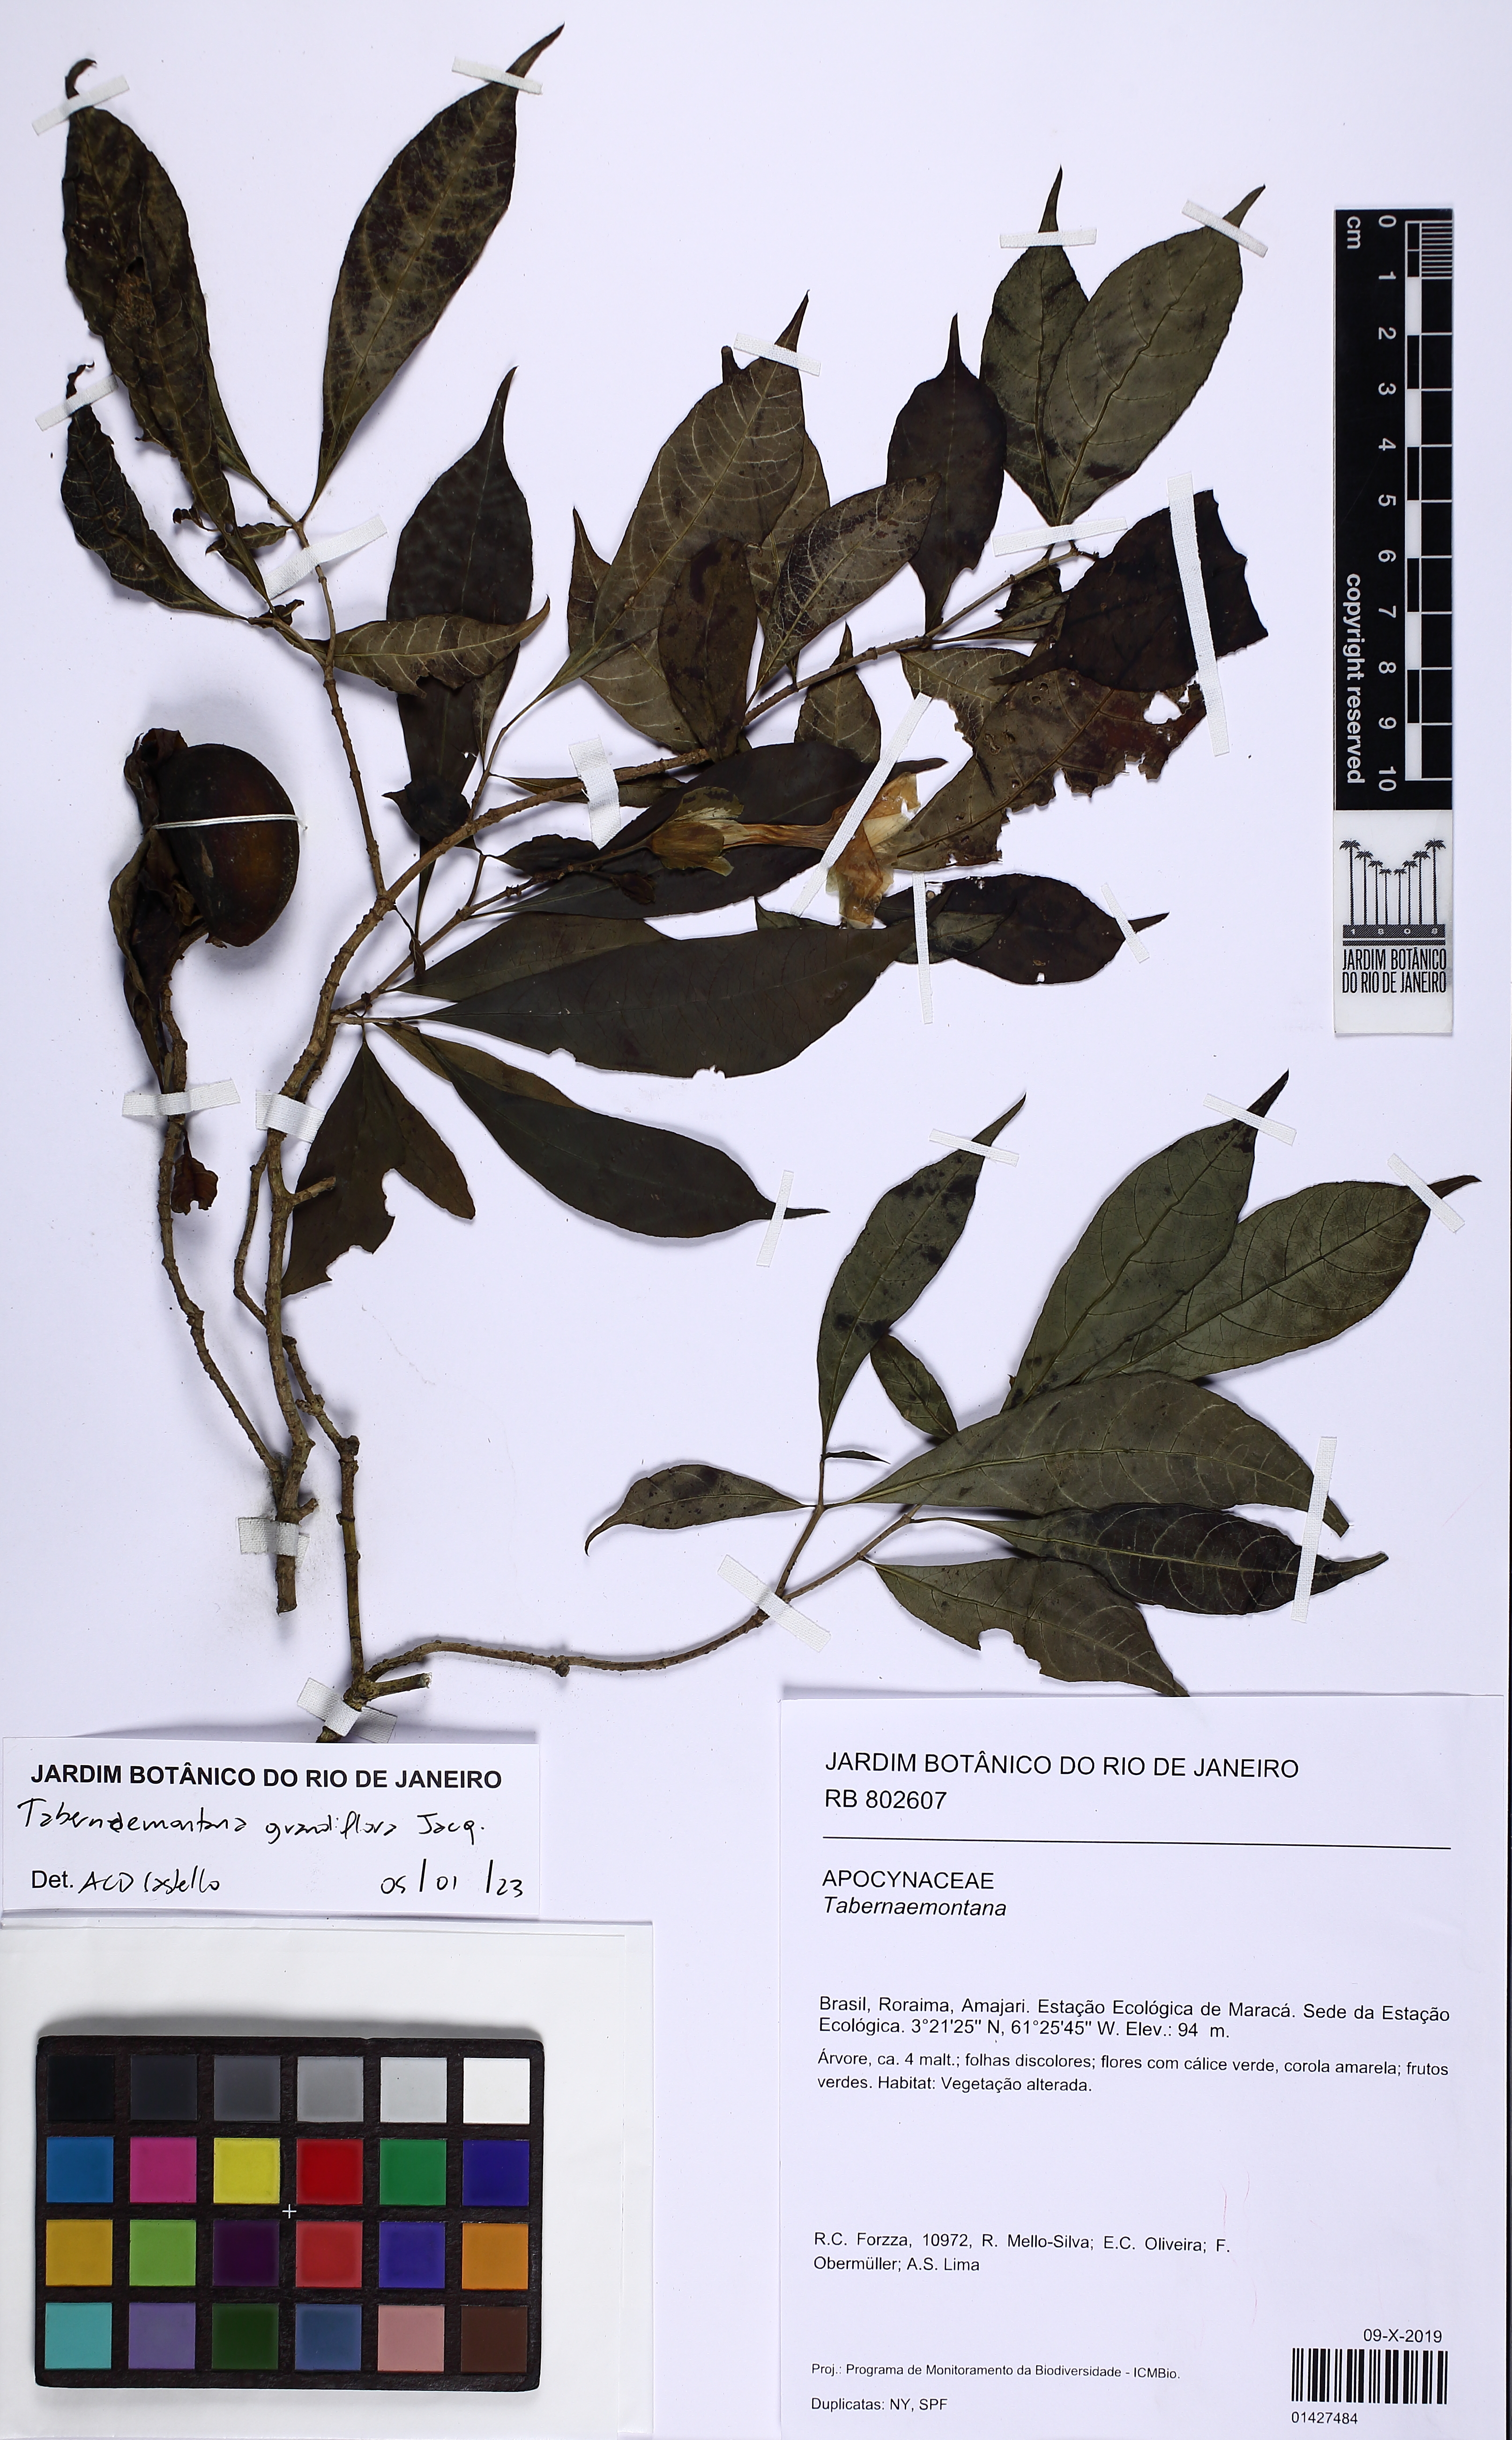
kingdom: Plantae
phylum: Tracheophyta
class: Magnoliopsida
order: Gentianales
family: Apocynaceae
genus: Tabernaemontana
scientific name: Tabernaemontana grandiflora
